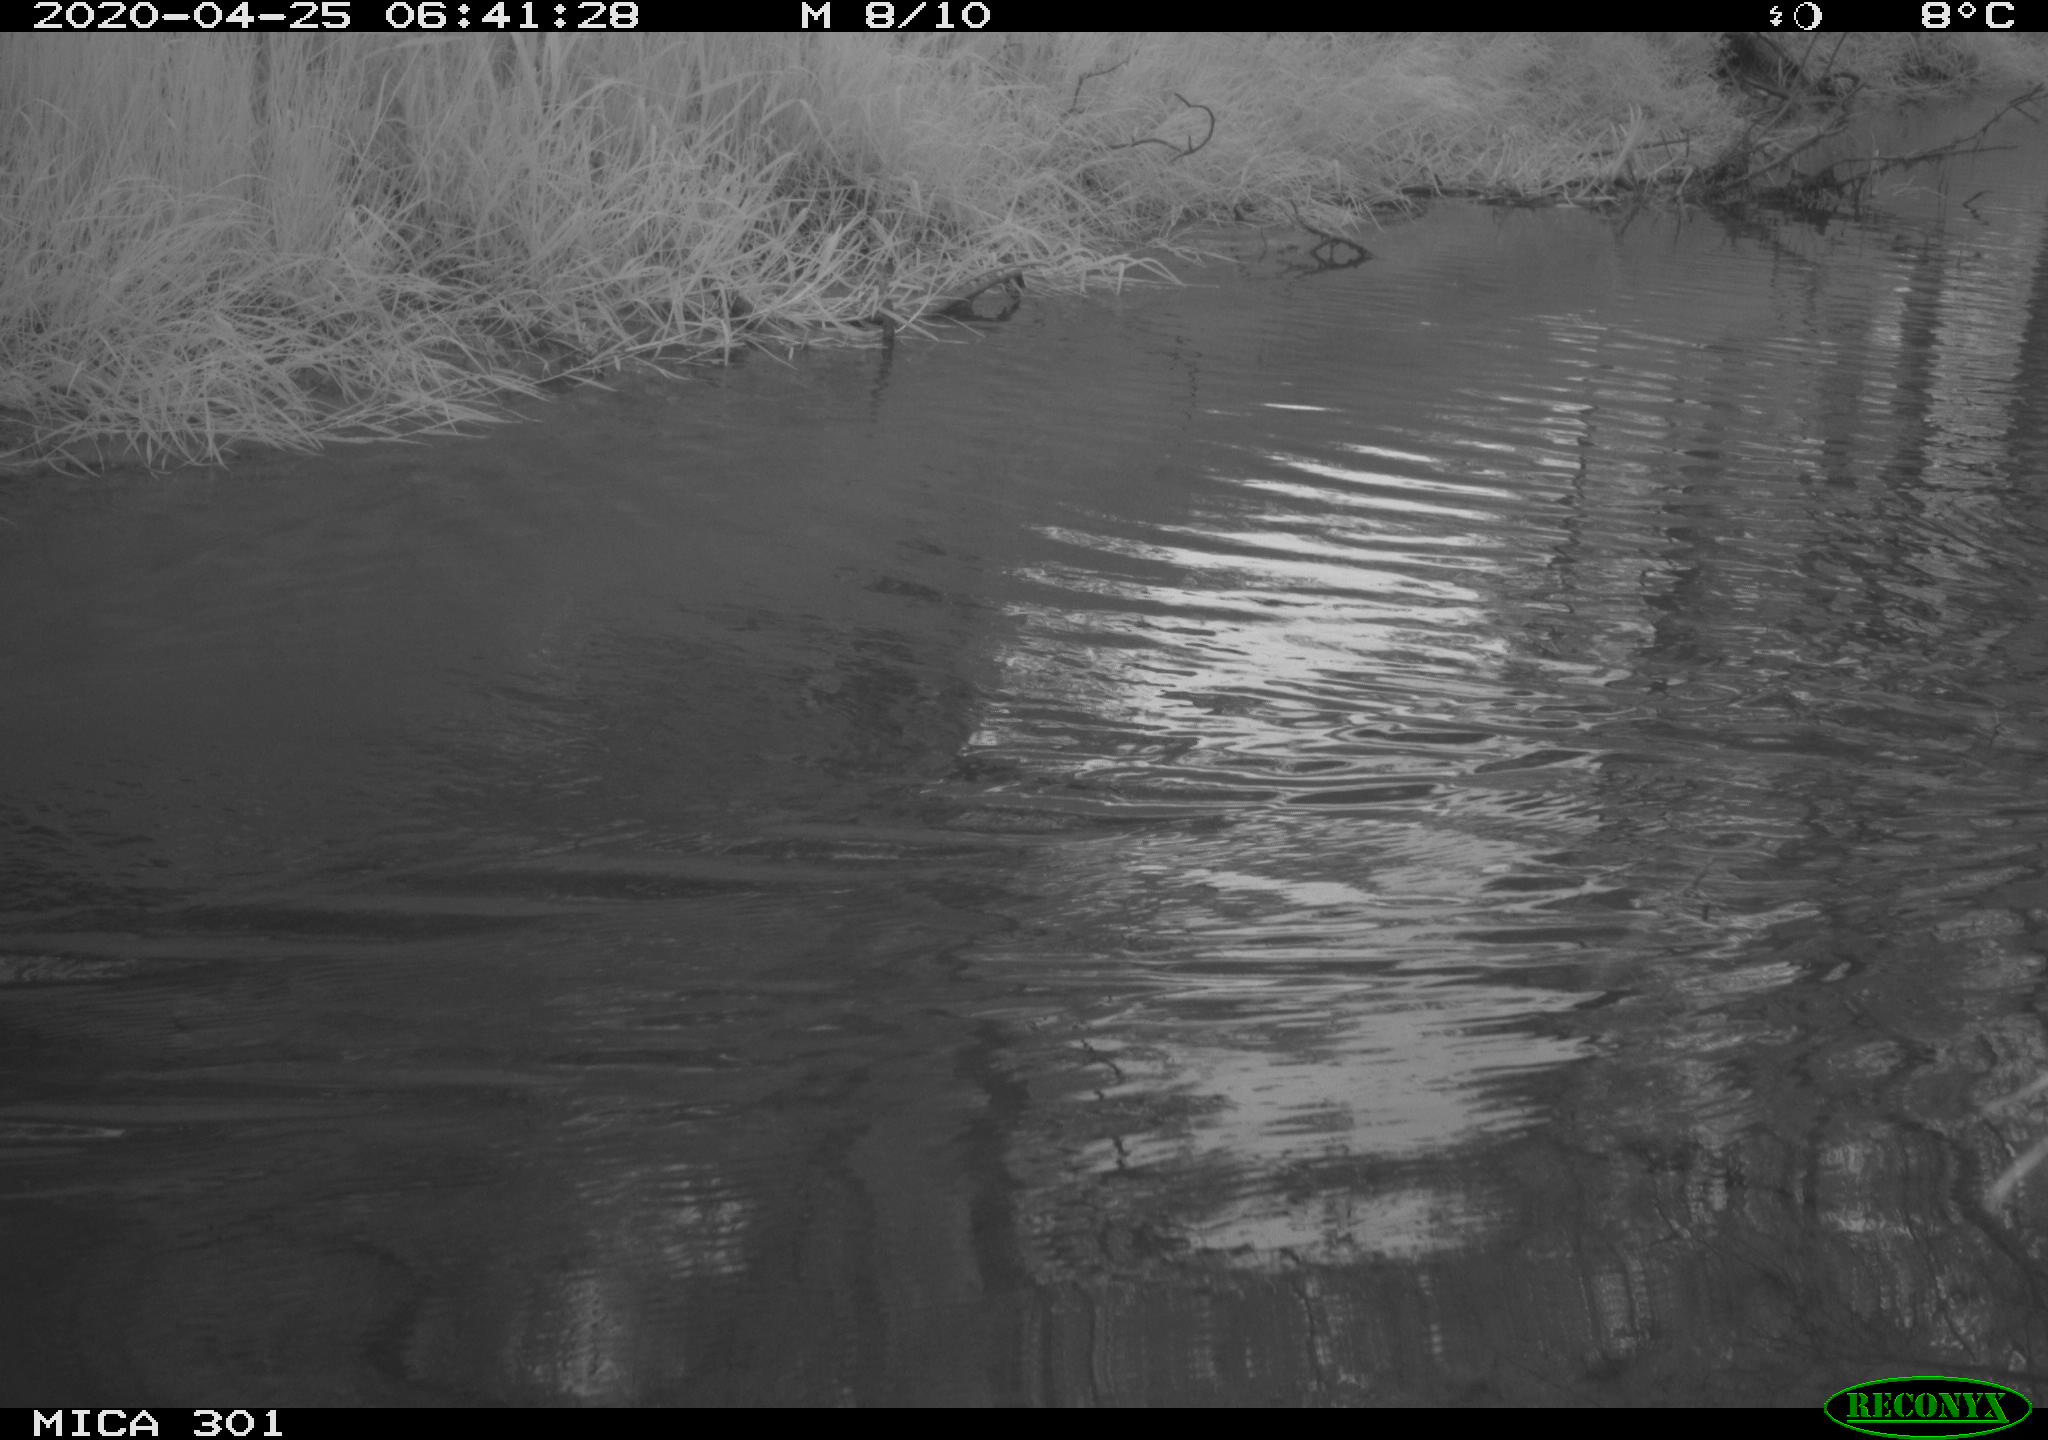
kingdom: Animalia
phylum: Chordata
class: Aves
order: Anseriformes
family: Anatidae
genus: Mareca
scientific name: Mareca strepera
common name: Gadwall
